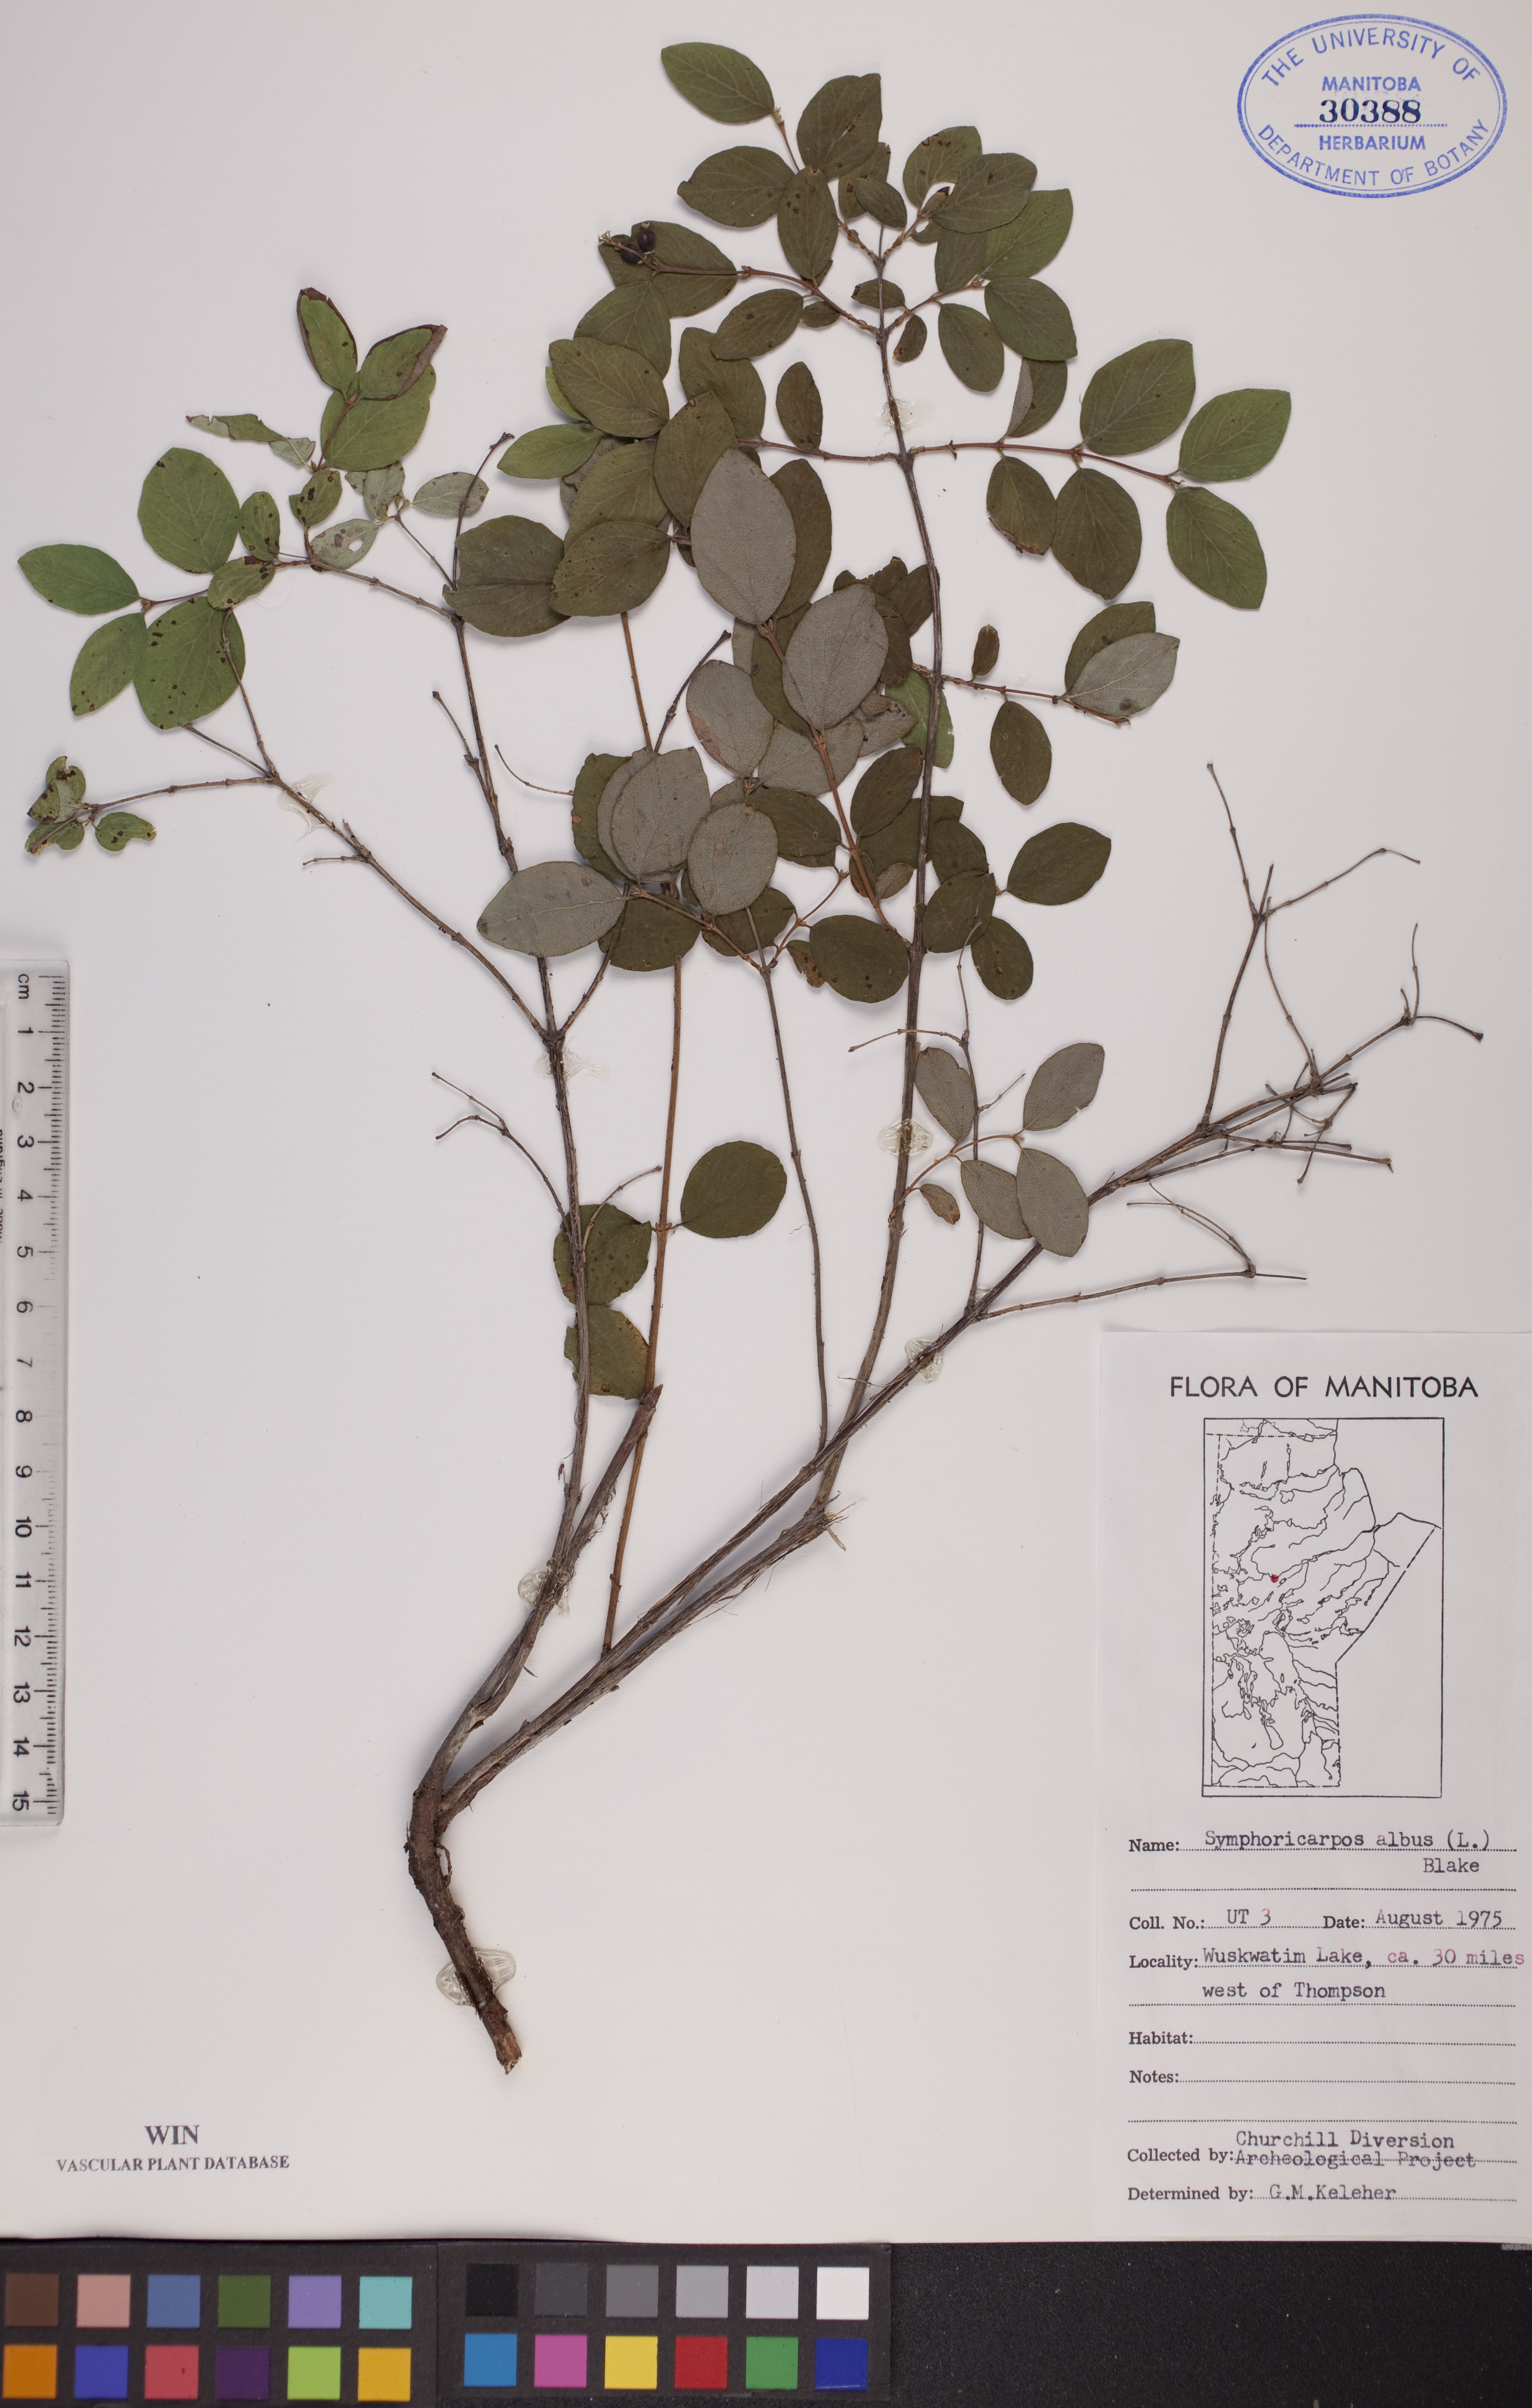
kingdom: Plantae
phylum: Tracheophyta
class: Magnoliopsida
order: Dipsacales
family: Caprifoliaceae
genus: Symphoricarpos
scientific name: Symphoricarpos albus
